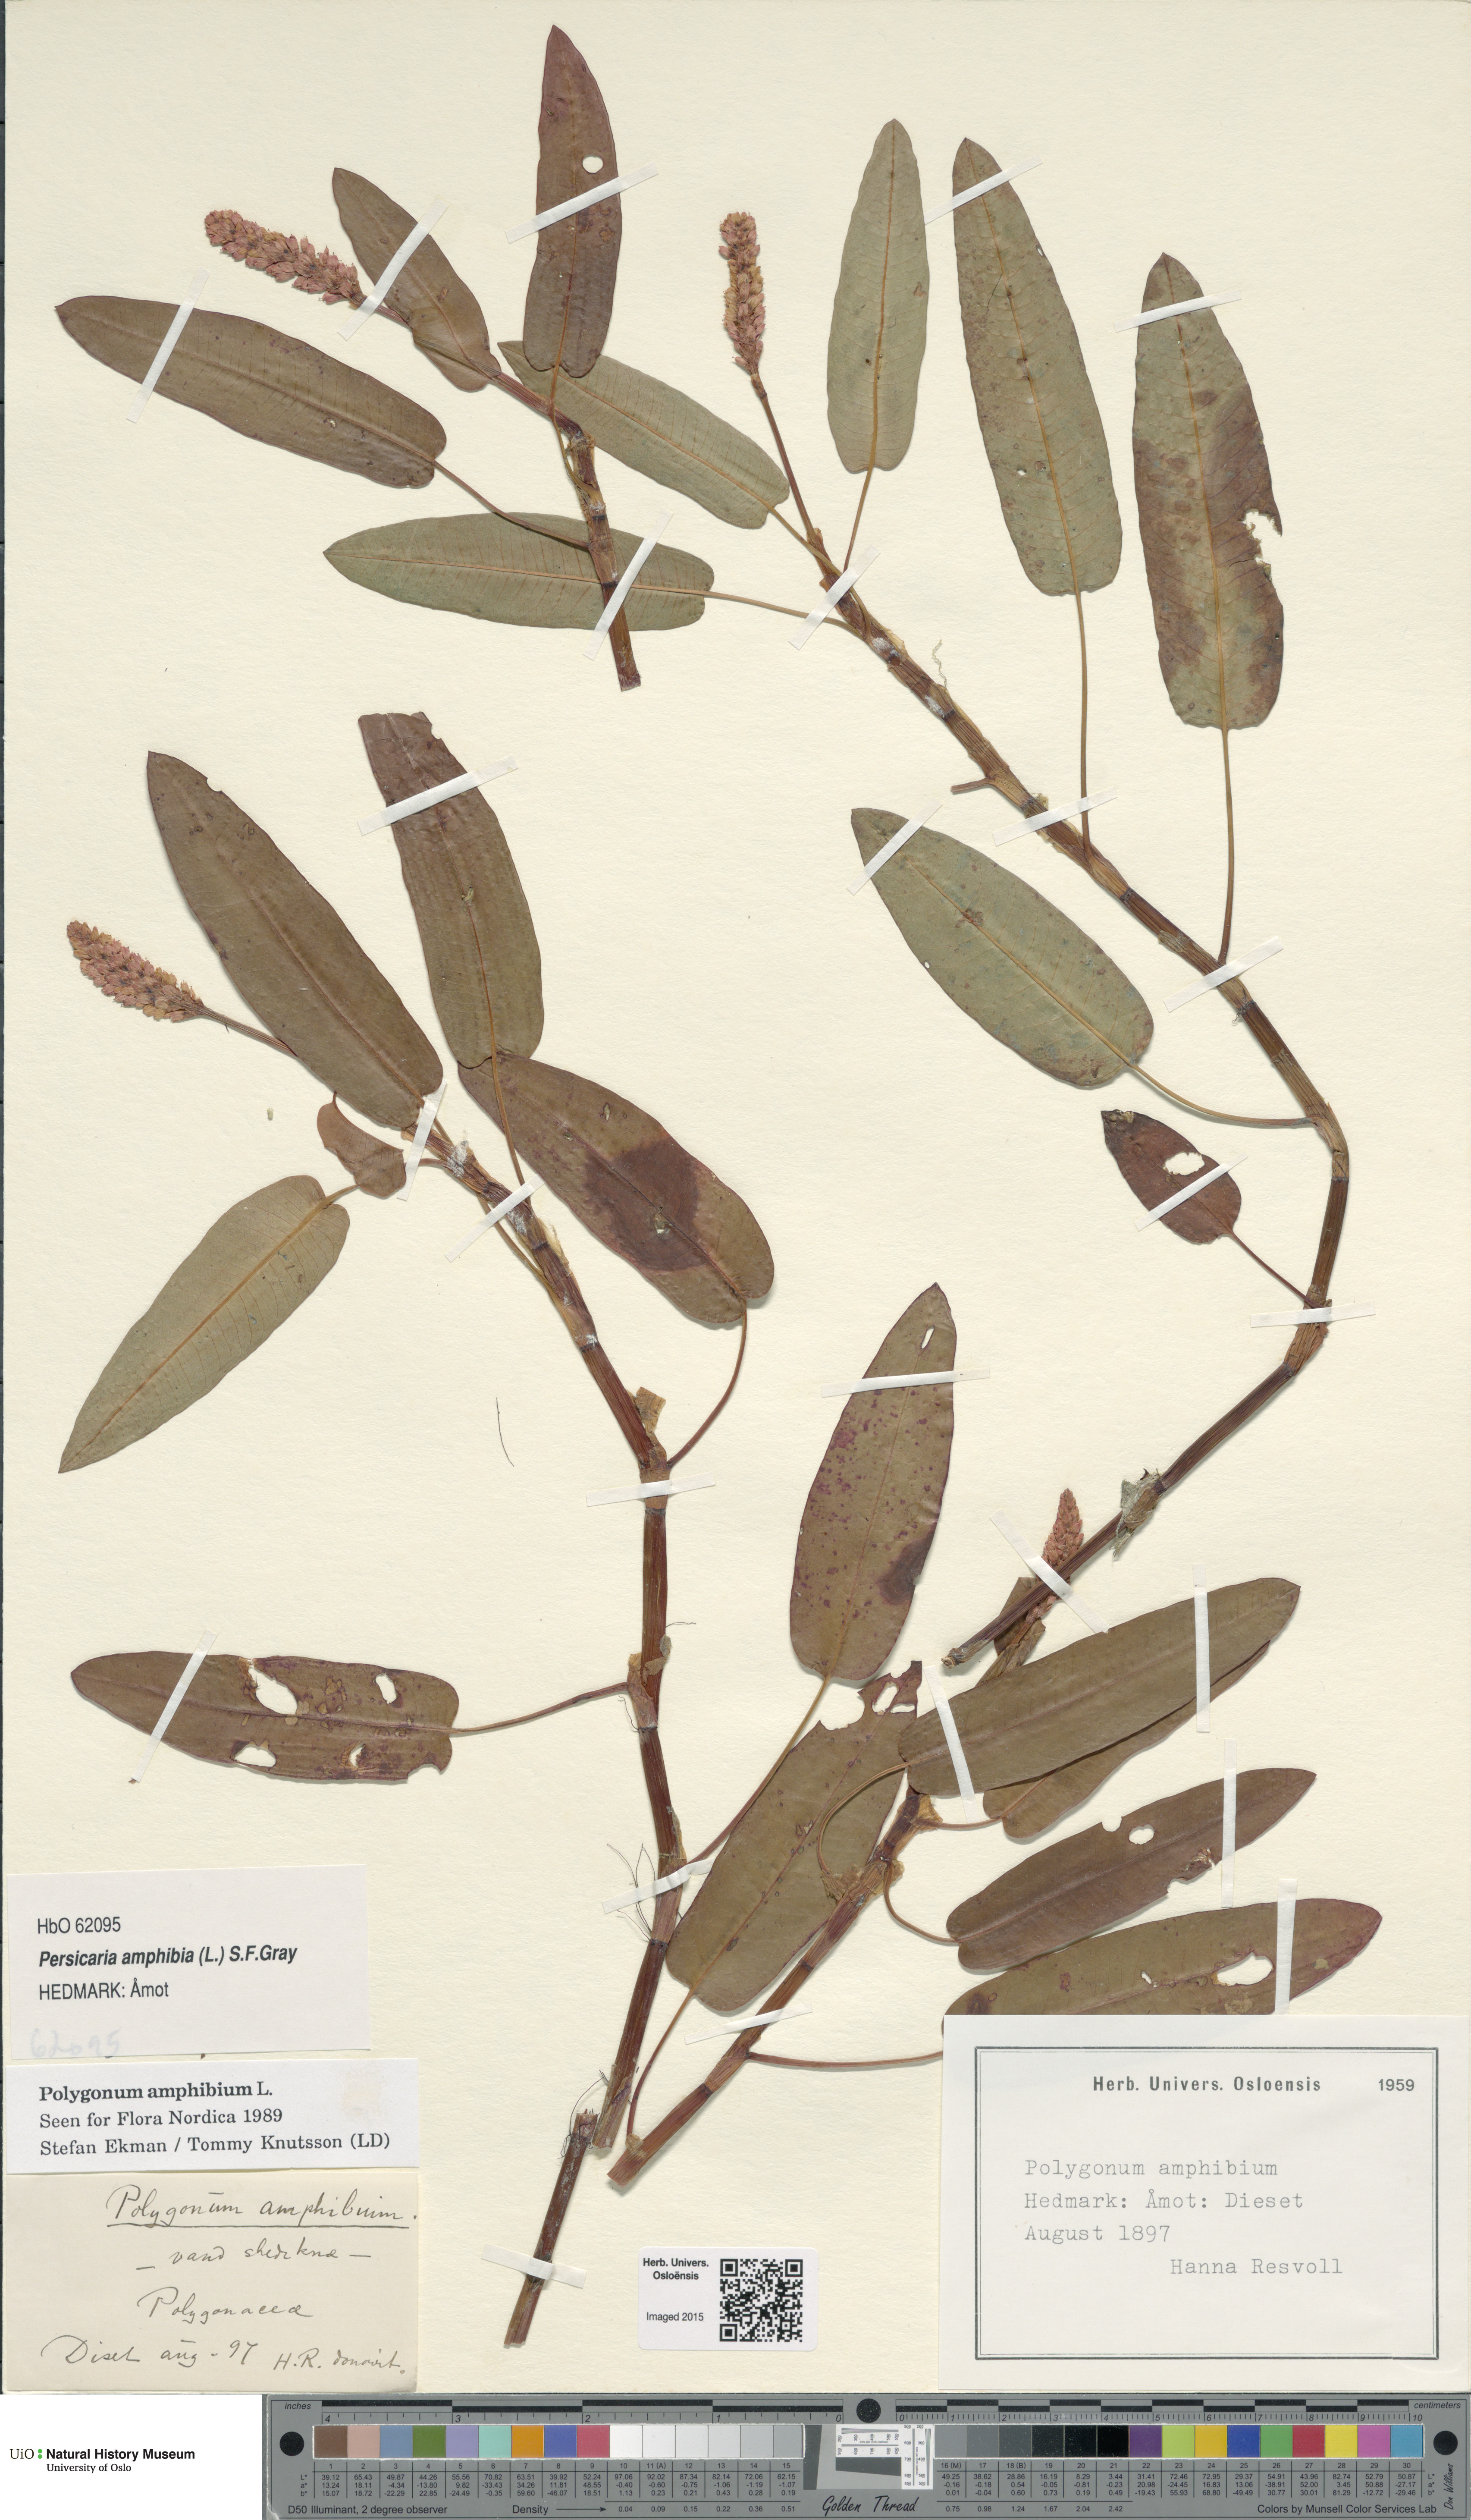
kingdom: Plantae
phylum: Tracheophyta
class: Magnoliopsida
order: Caryophyllales
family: Polygonaceae
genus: Persicaria
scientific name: Persicaria amphibia
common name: Amphibious bistort
